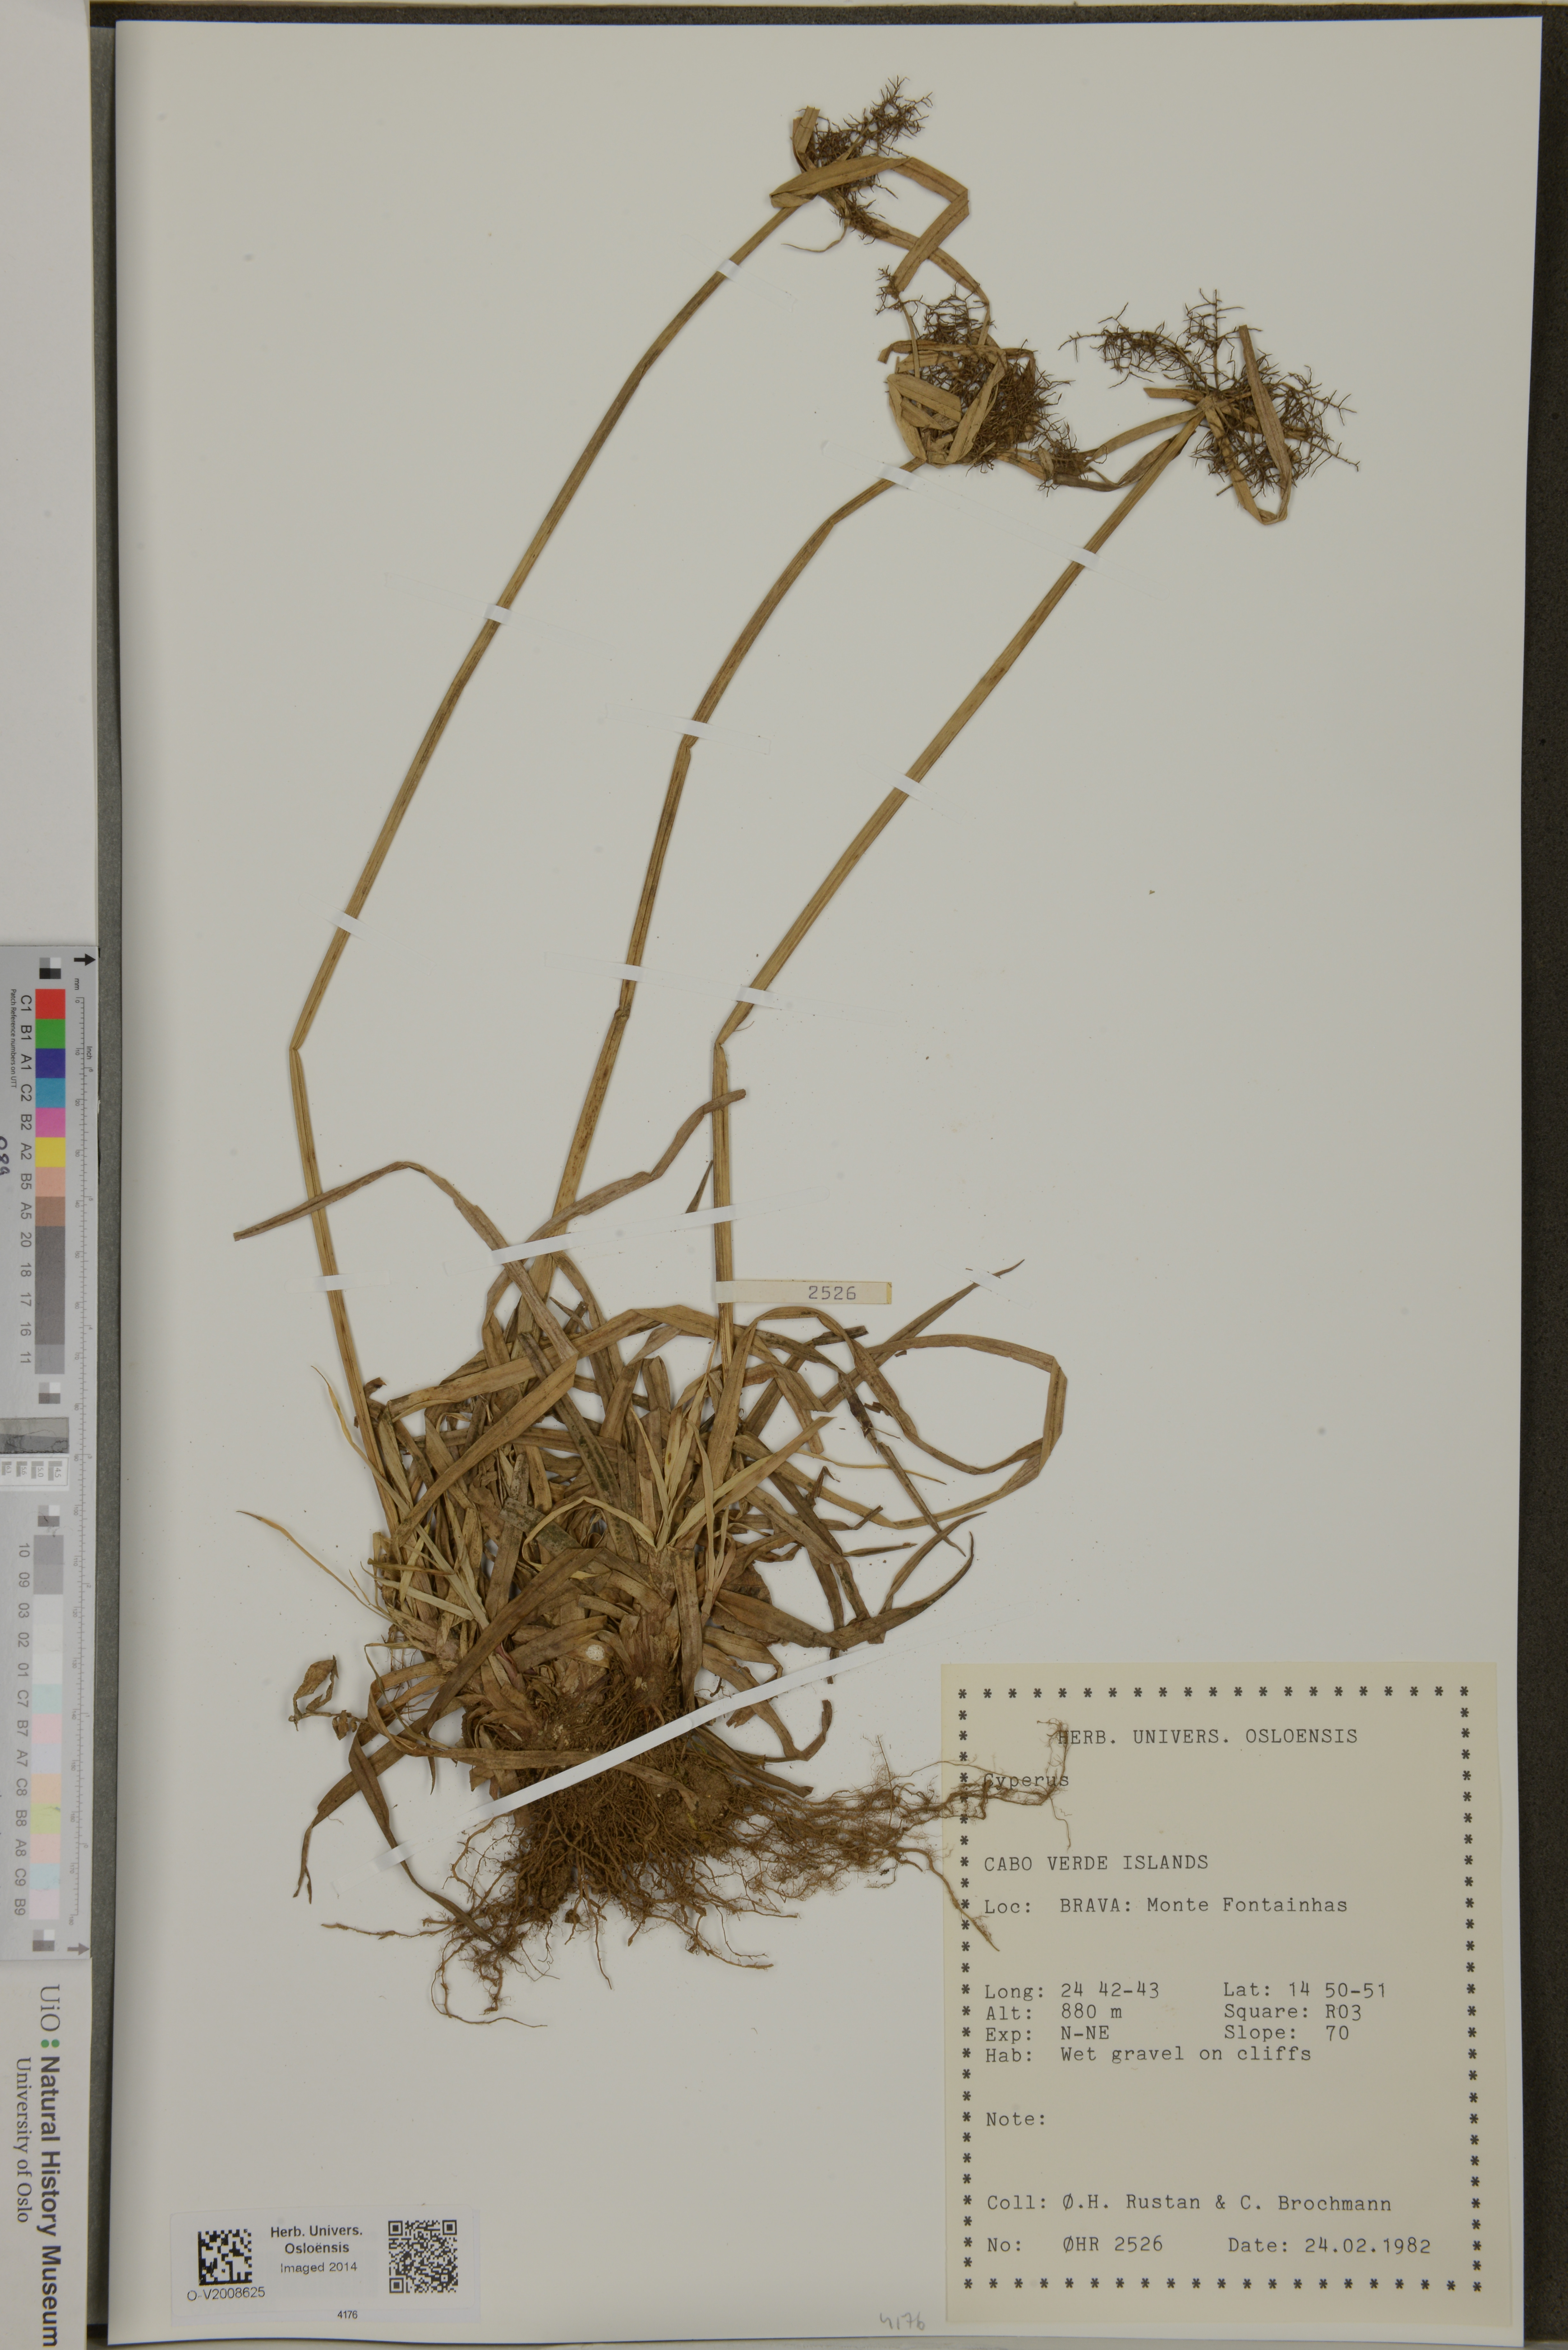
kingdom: Plantae
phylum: Tracheophyta
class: Liliopsida
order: Poales
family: Cyperaceae
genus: Cyperus
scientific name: Cyperus
